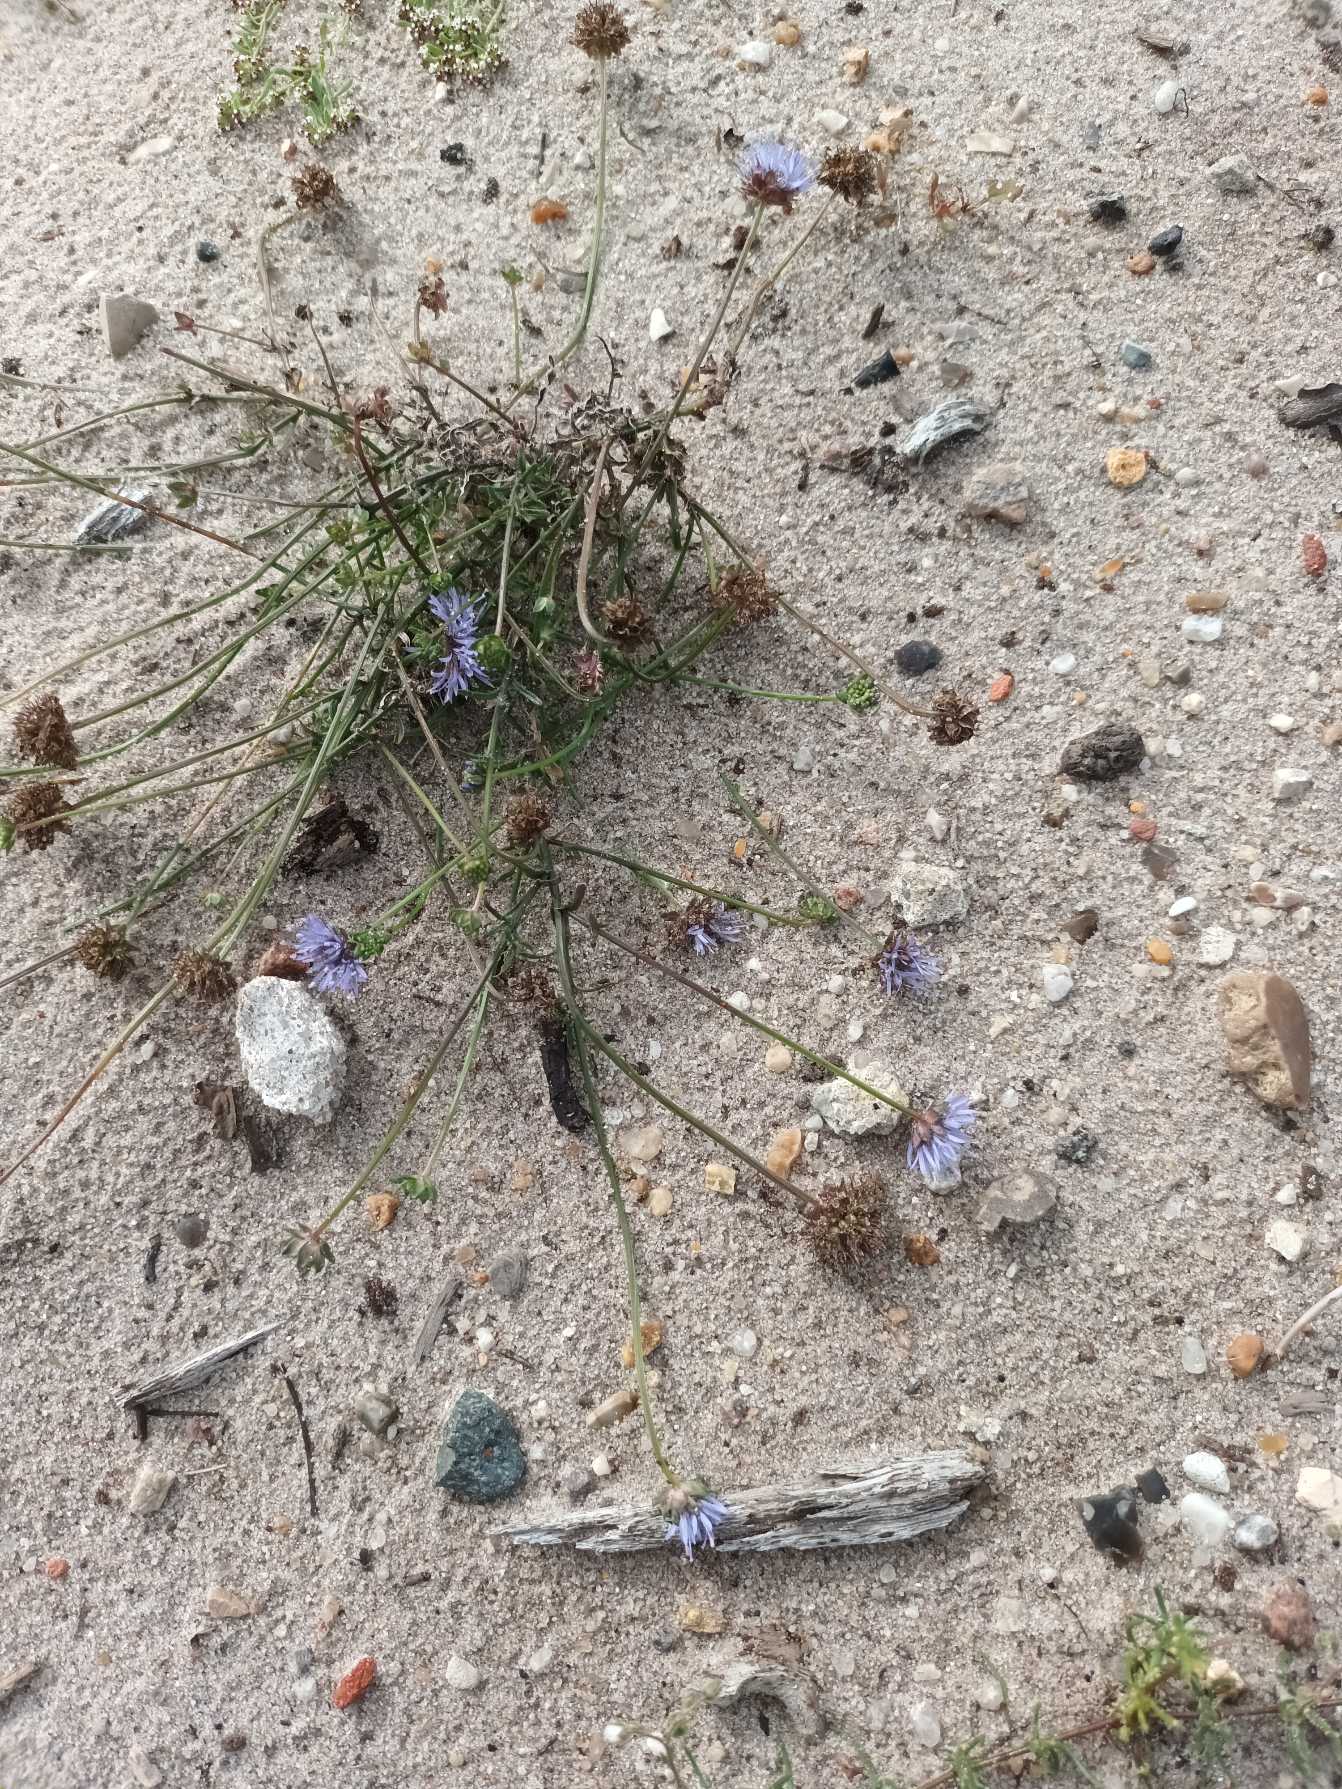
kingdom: Plantae
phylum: Tracheophyta
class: Magnoliopsida
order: Asterales
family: Campanulaceae
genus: Jasione
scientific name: Jasione montana
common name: Blåmunke
